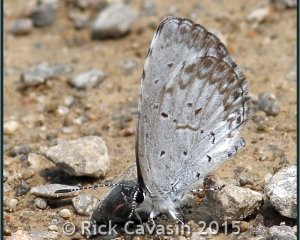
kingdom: Animalia
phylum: Arthropoda
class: Insecta
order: Lepidoptera
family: Lycaenidae
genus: Cyaniris
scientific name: Cyaniris neglecta
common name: Summer Azure
